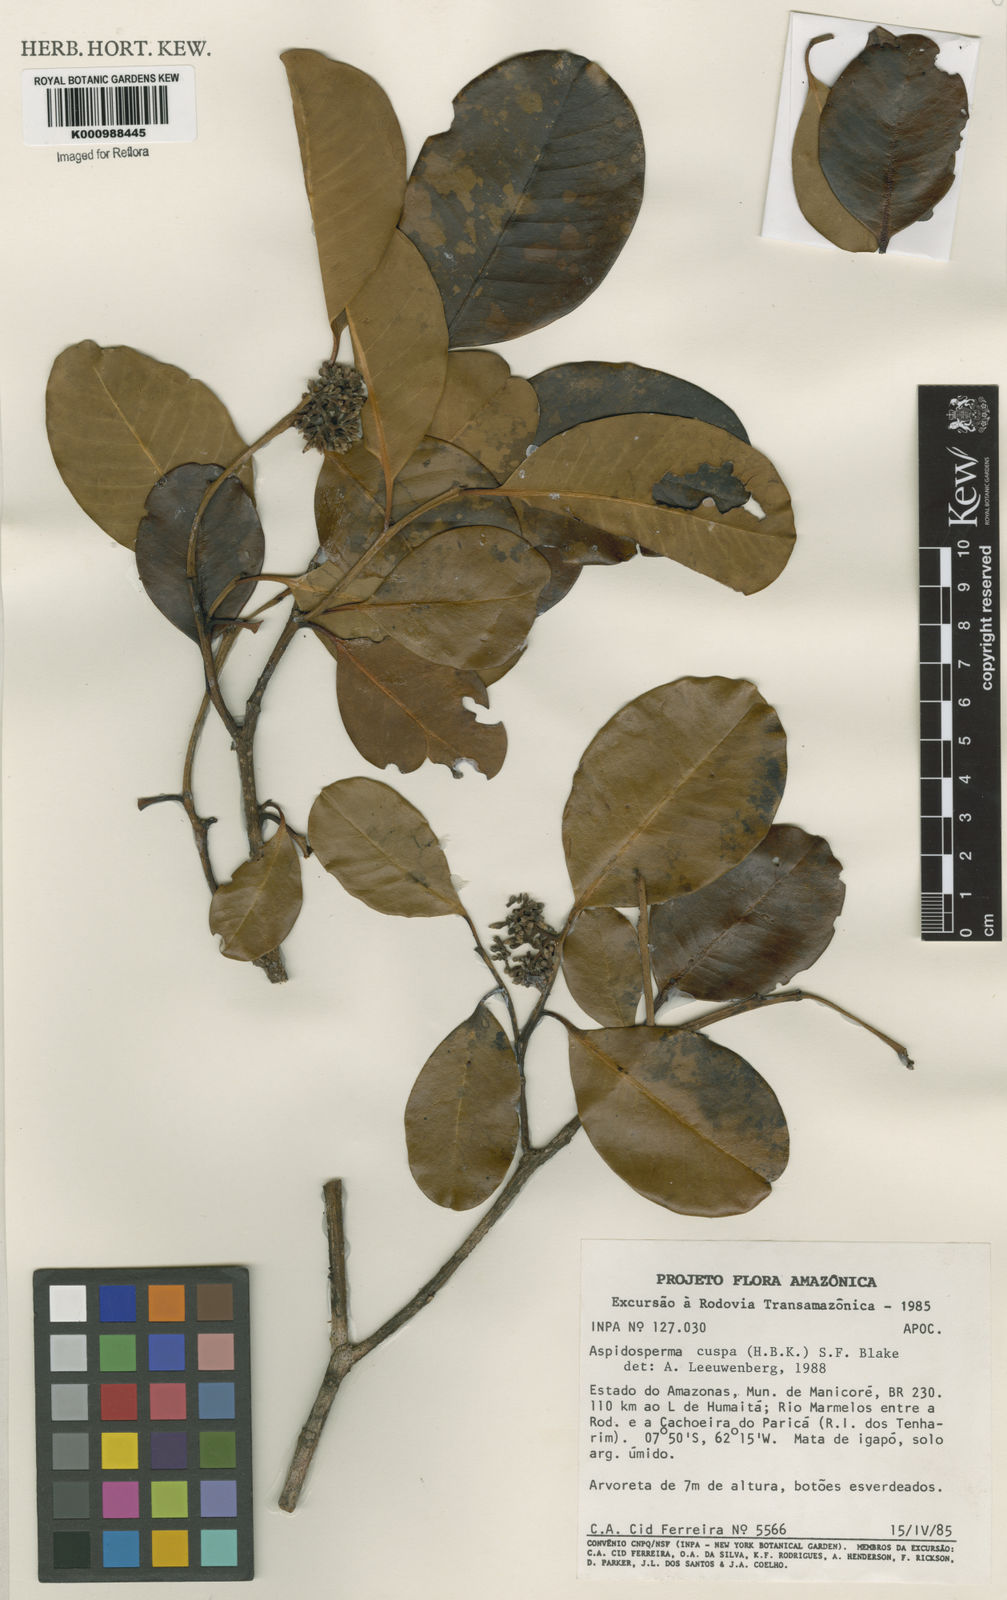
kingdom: Plantae
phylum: Tracheophyta
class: Magnoliopsida
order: Gentianales
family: Apocynaceae
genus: Aspidosperma
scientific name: Aspidosperma cuspa
